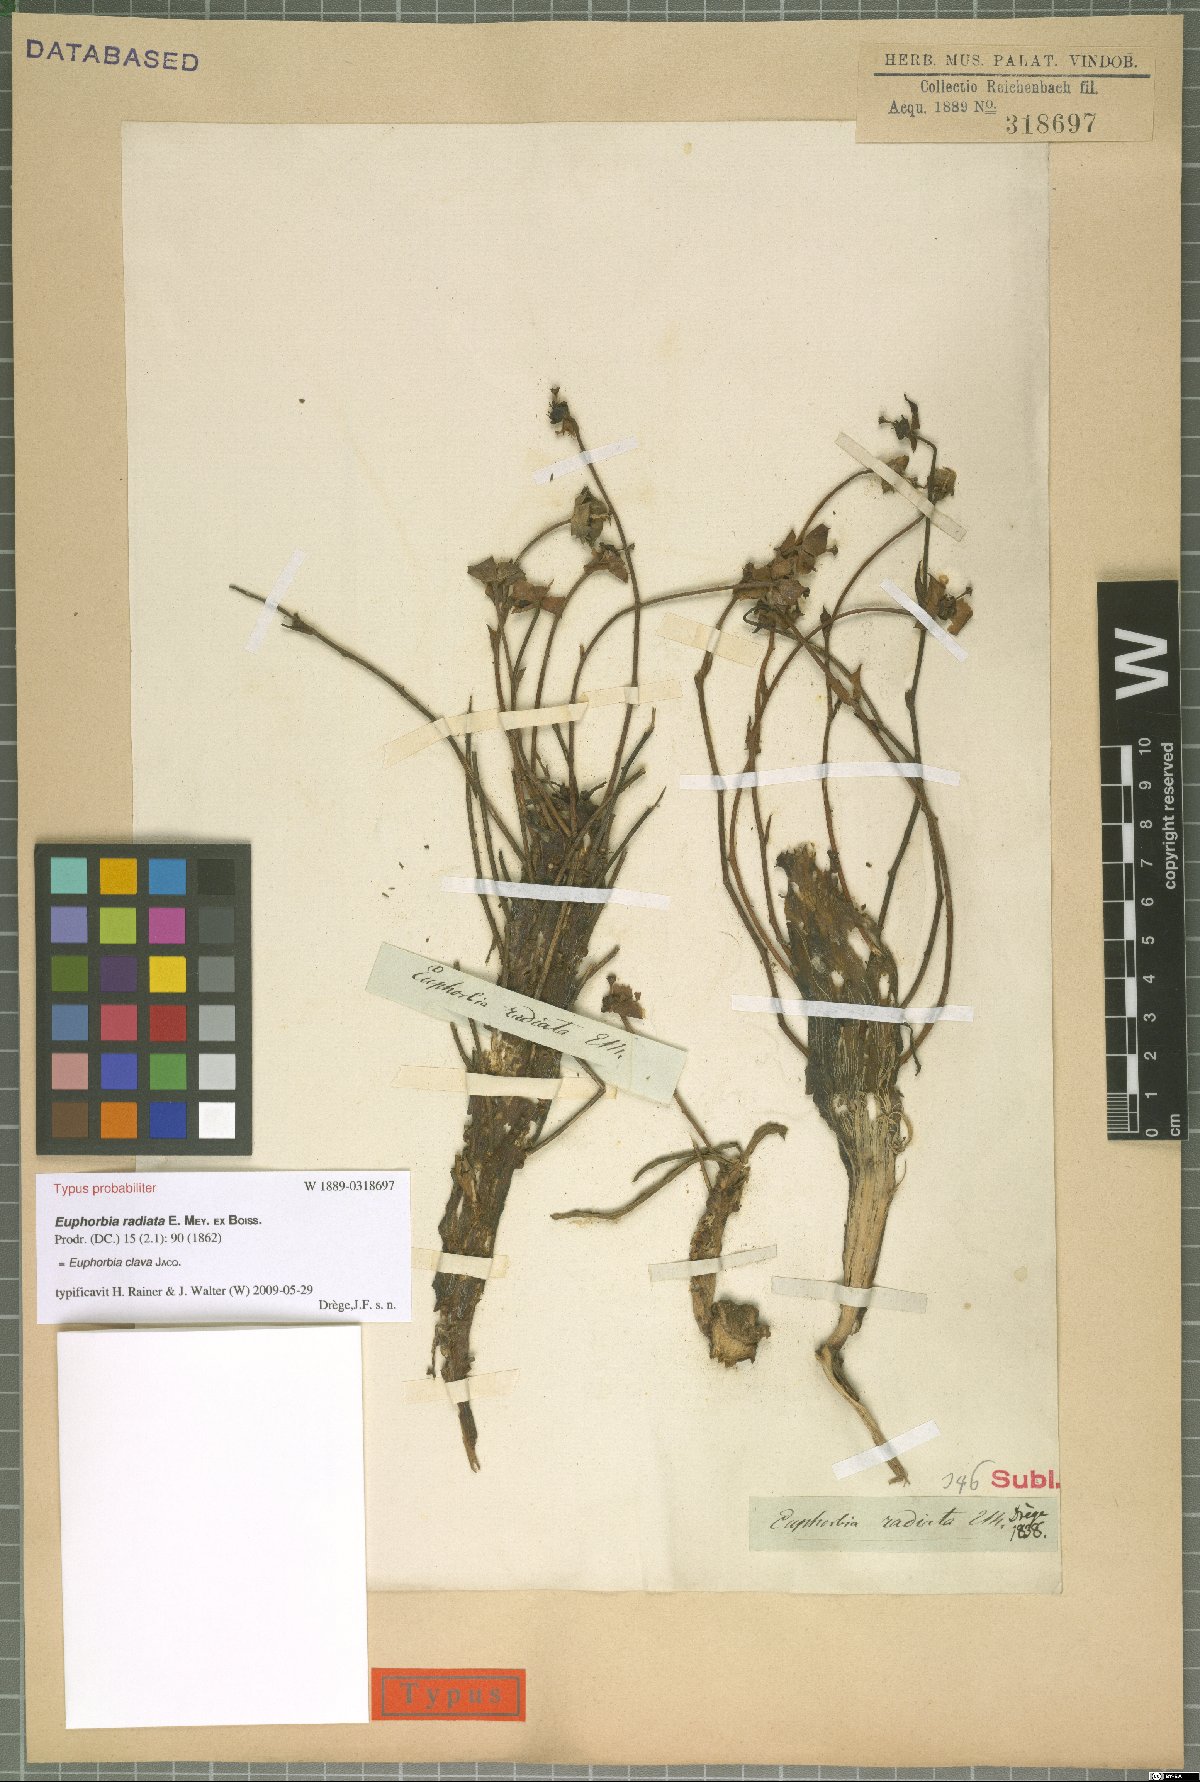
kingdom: Plantae
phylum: Tracheophyta
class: Magnoliopsida
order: Malpighiales
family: Euphorbiaceae
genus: Euphorbia
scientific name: Euphorbia clava
